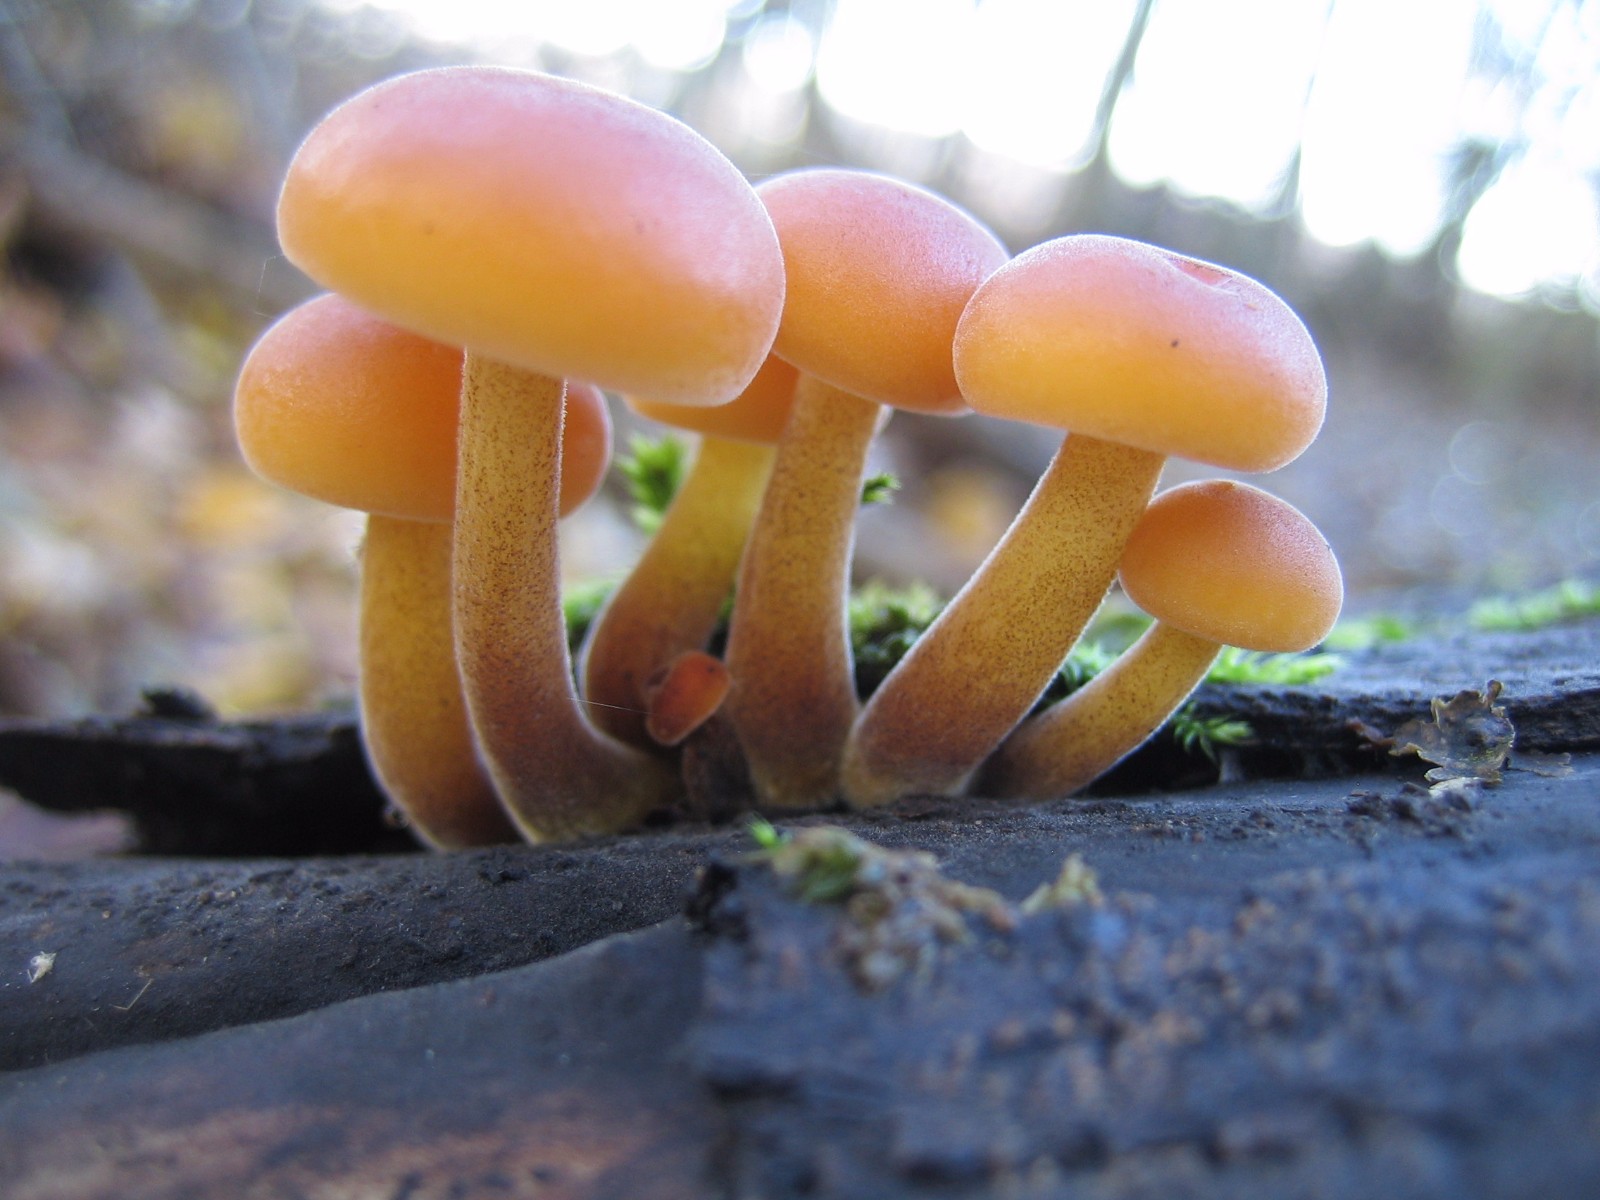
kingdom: Fungi
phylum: Basidiomycota
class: Agaricomycetes
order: Agaricales
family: Physalacriaceae
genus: Flammulina
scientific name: Flammulina velutipes
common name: gul fløjlsfod
